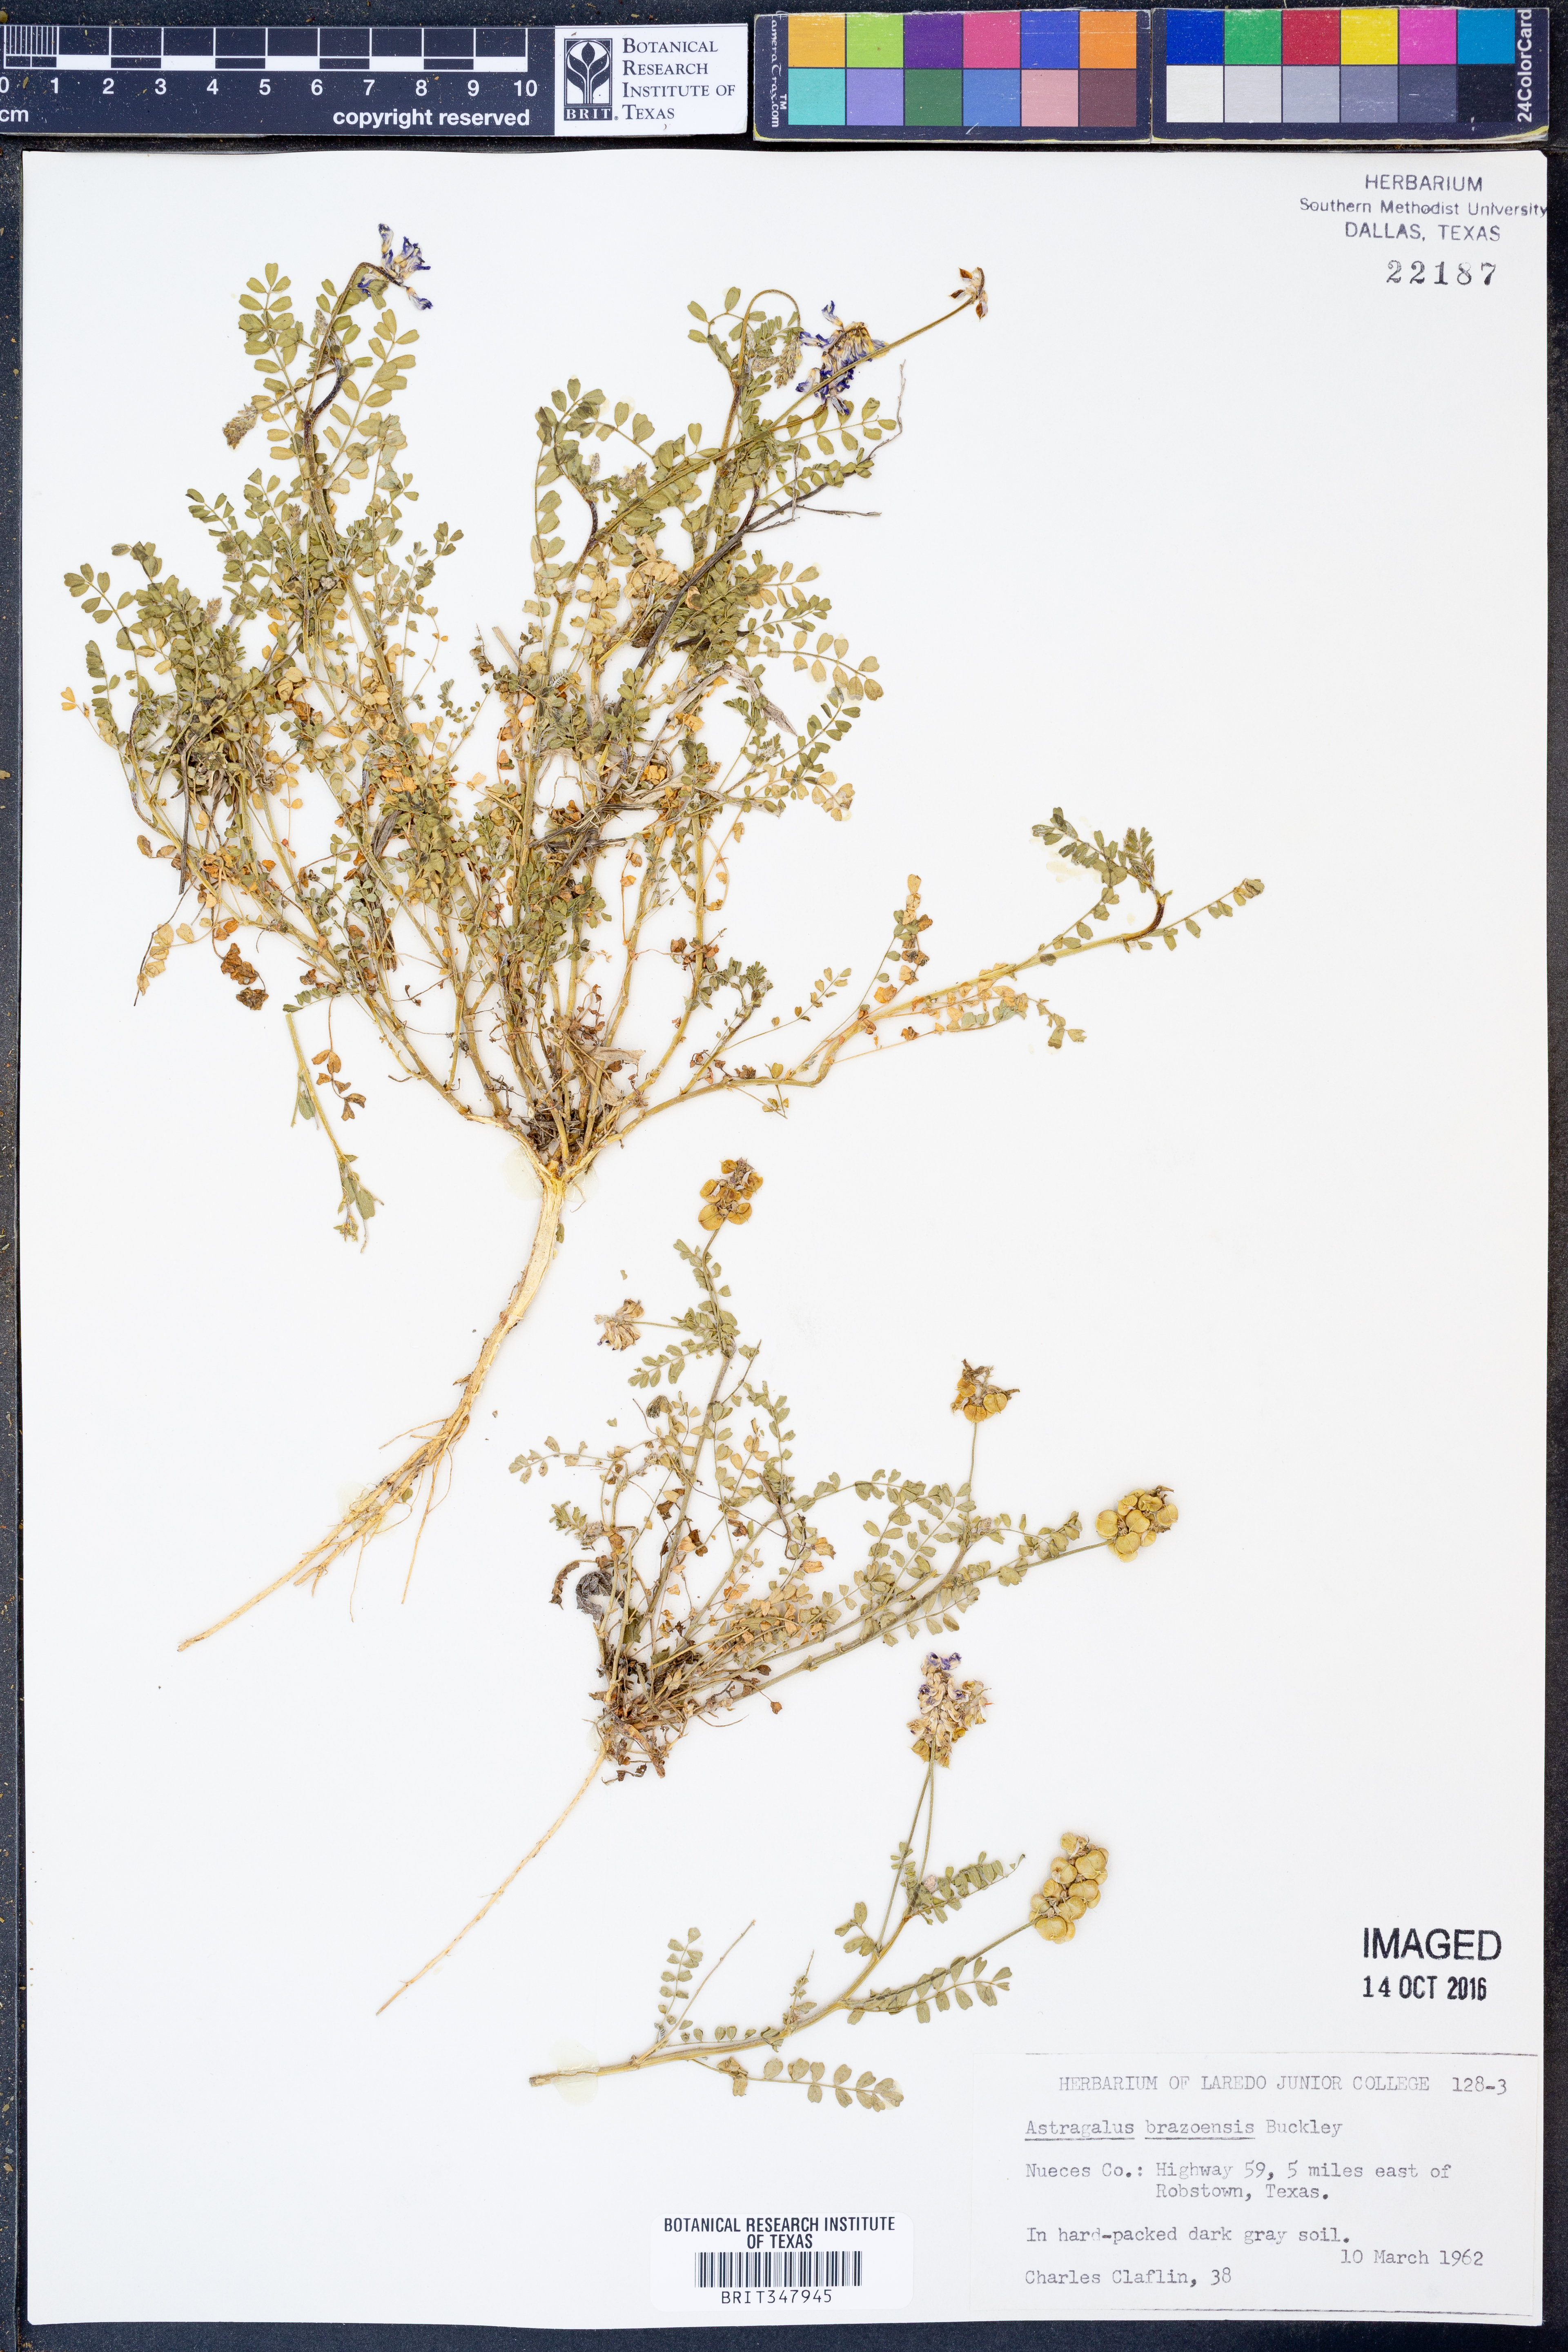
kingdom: Plantae
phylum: Tracheophyta
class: Magnoliopsida
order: Fabales
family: Fabaceae
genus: Astragalus
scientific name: Astragalus brazoensis
